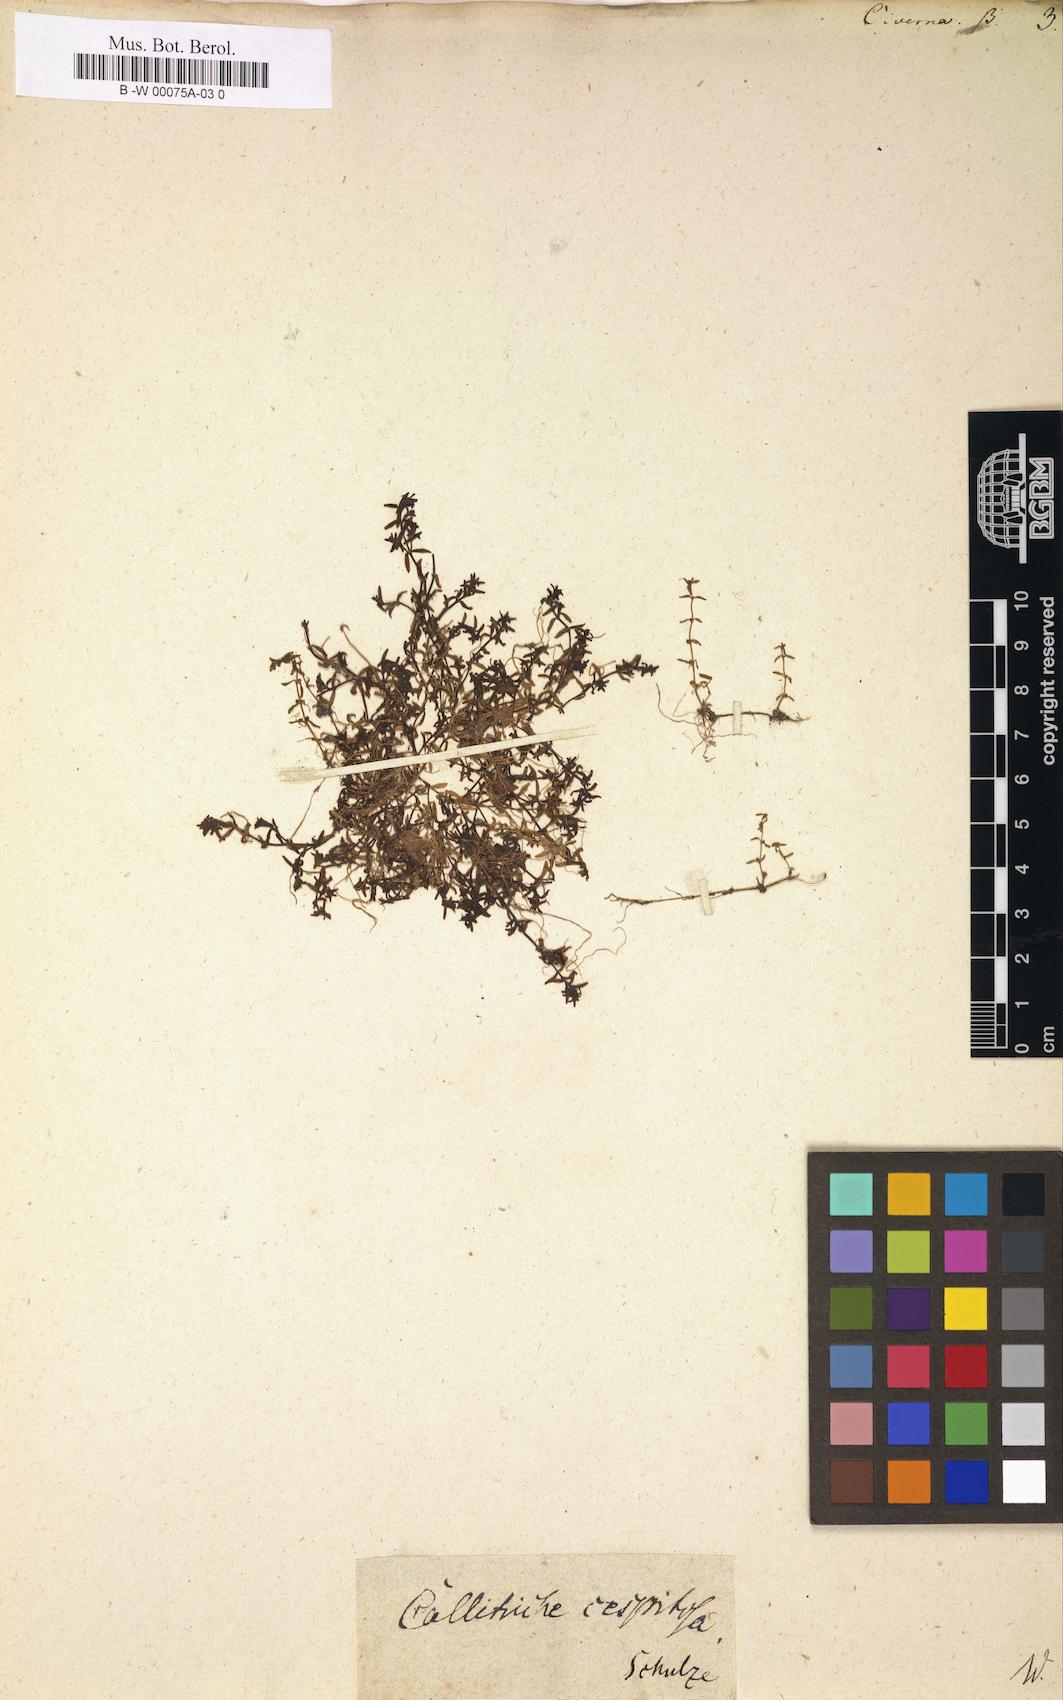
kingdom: Plantae
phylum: Tracheophyta
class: Magnoliopsida
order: Lamiales
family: Plantaginaceae
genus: Callitriche
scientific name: Callitriche
